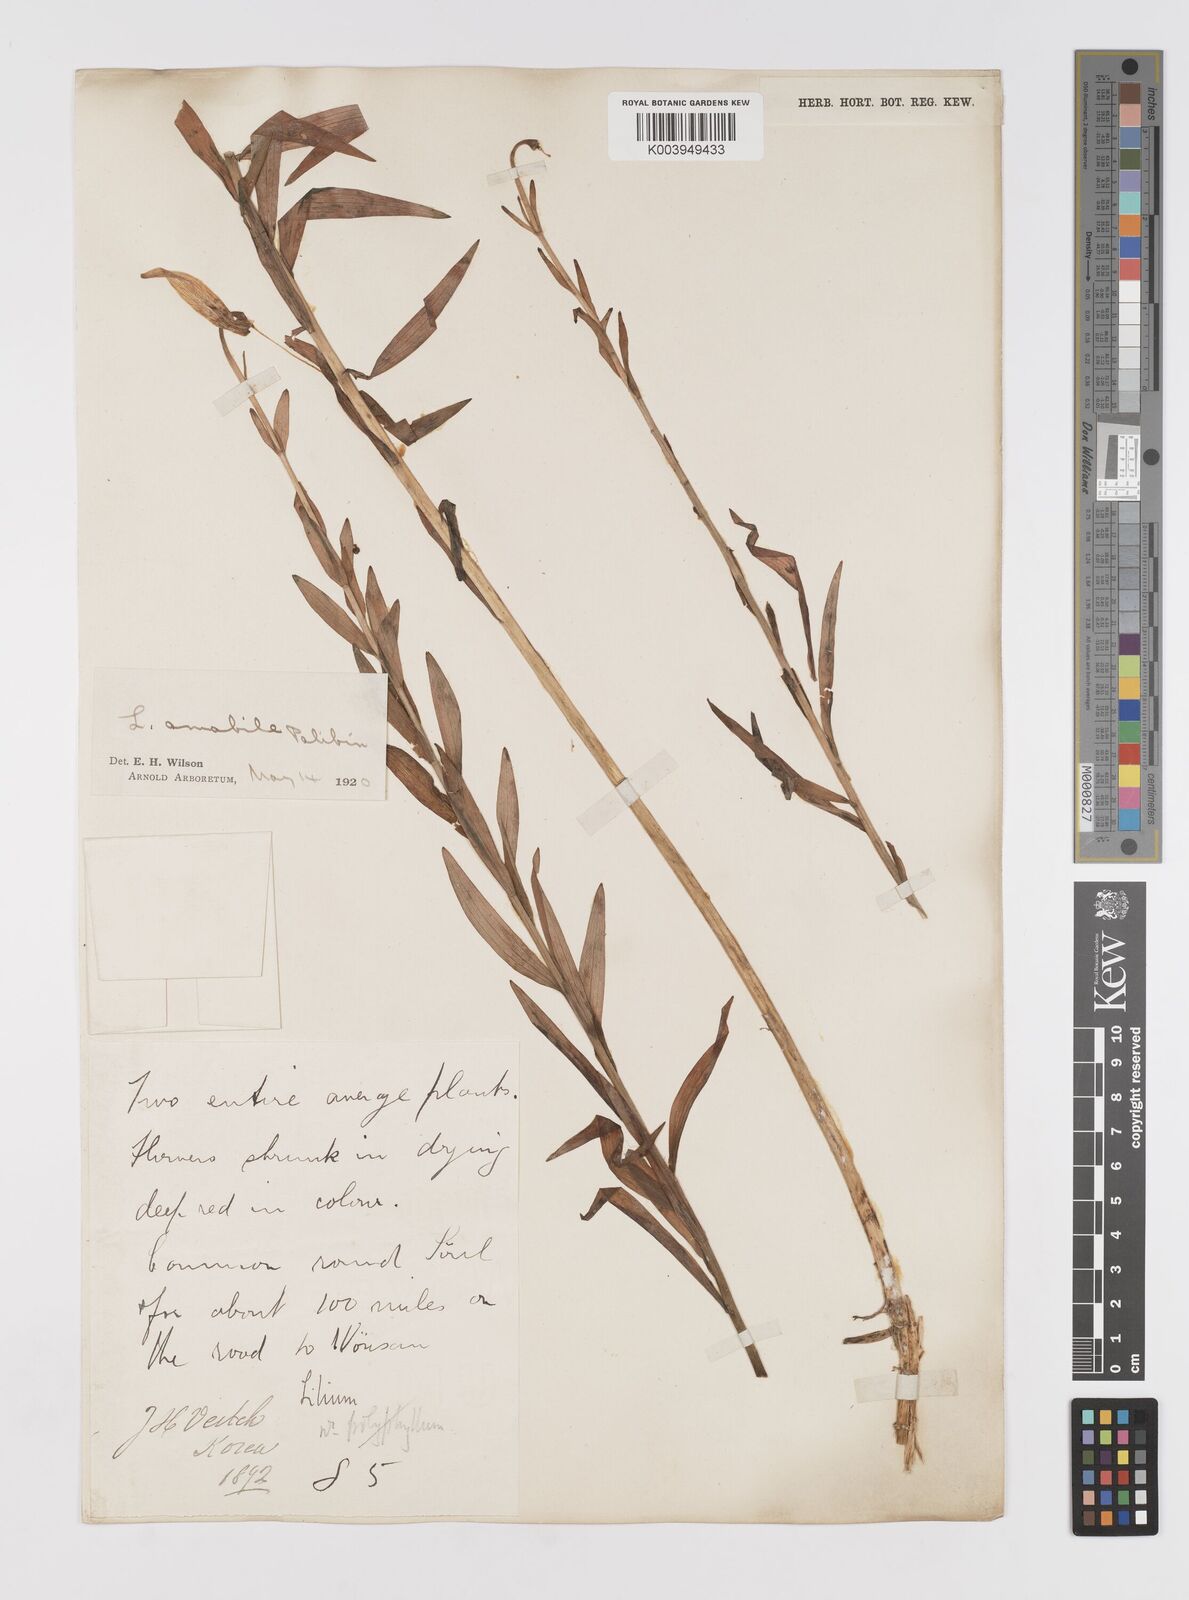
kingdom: Plantae
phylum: Tracheophyta
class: Liliopsida
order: Liliales
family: Liliaceae
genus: Lilium
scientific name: Lilium amabile
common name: Korean lily
